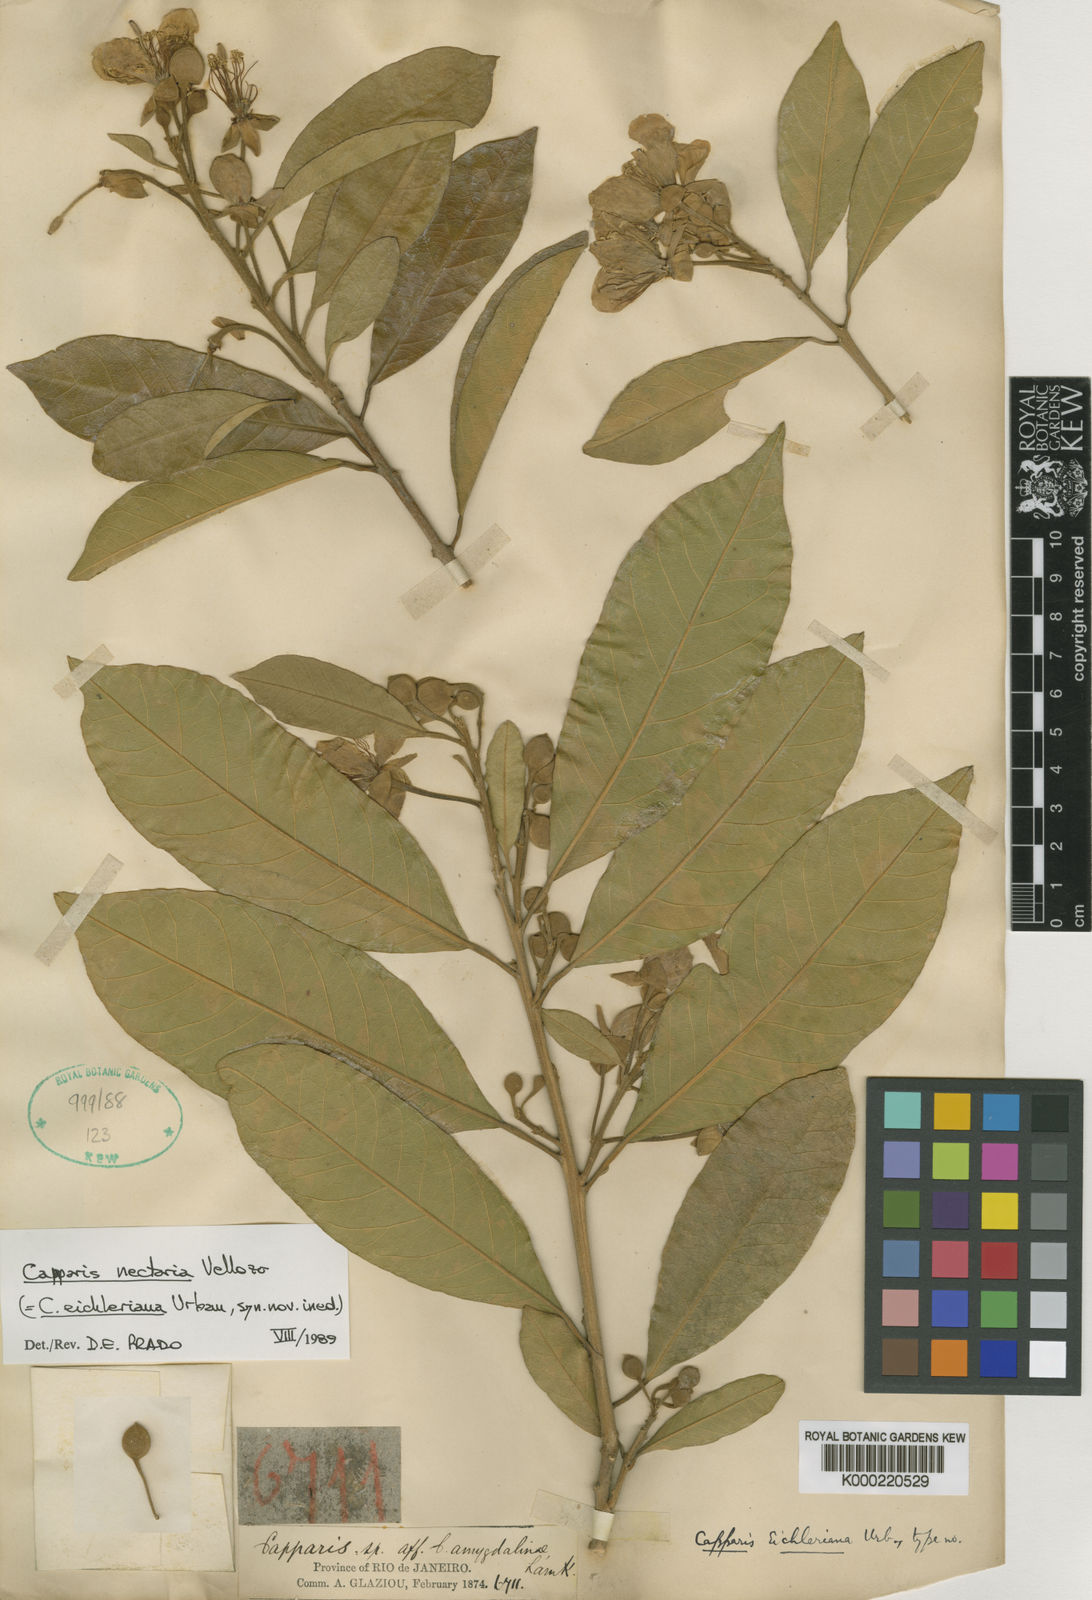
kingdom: Plantae
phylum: Tracheophyta
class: Magnoliopsida
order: Brassicales
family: Capparaceae
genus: Neocalyptrocalyx
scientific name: Neocalyptrocalyx eichleriana
